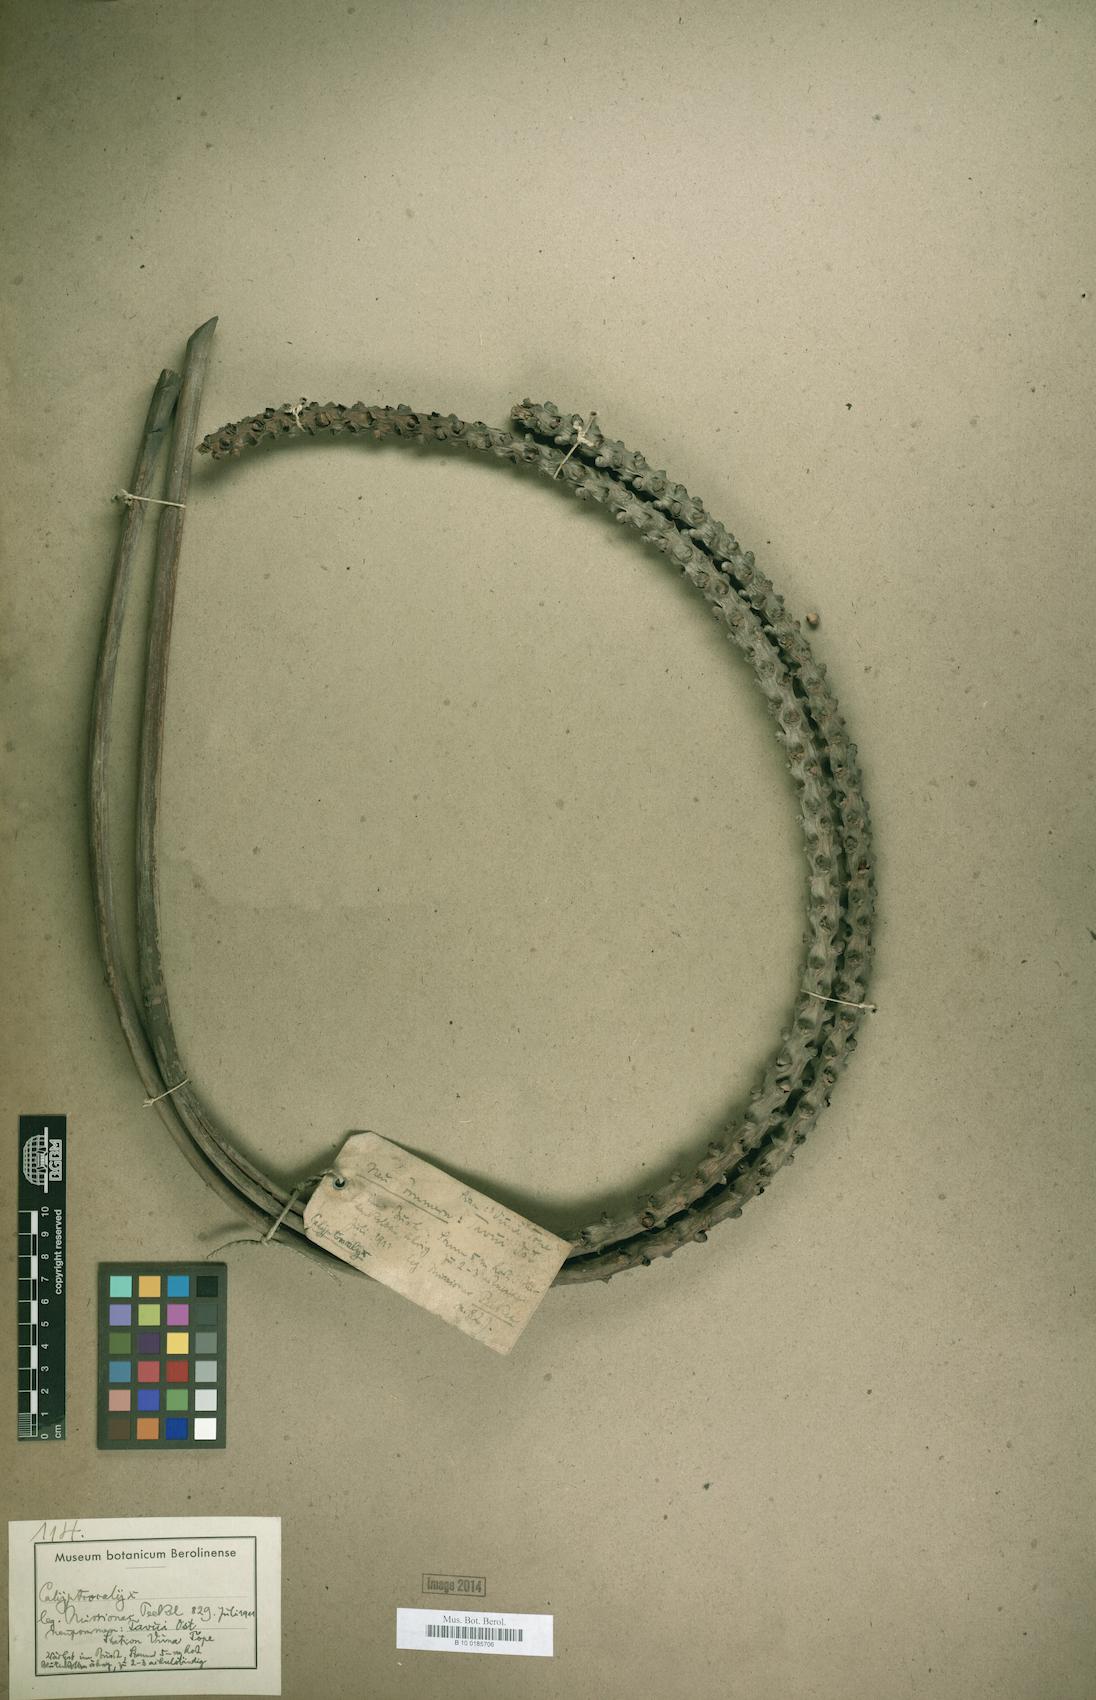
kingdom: Plantae
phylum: Tracheophyta
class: Liliopsida
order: Arecales
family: Arecaceae
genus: Calyptrocalyx
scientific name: Calyptrocalyx
